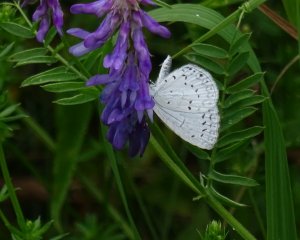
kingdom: Animalia
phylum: Arthropoda
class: Insecta
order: Lepidoptera
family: Lycaenidae
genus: Cyaniris
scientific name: Cyaniris neglecta
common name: Summer Azure
